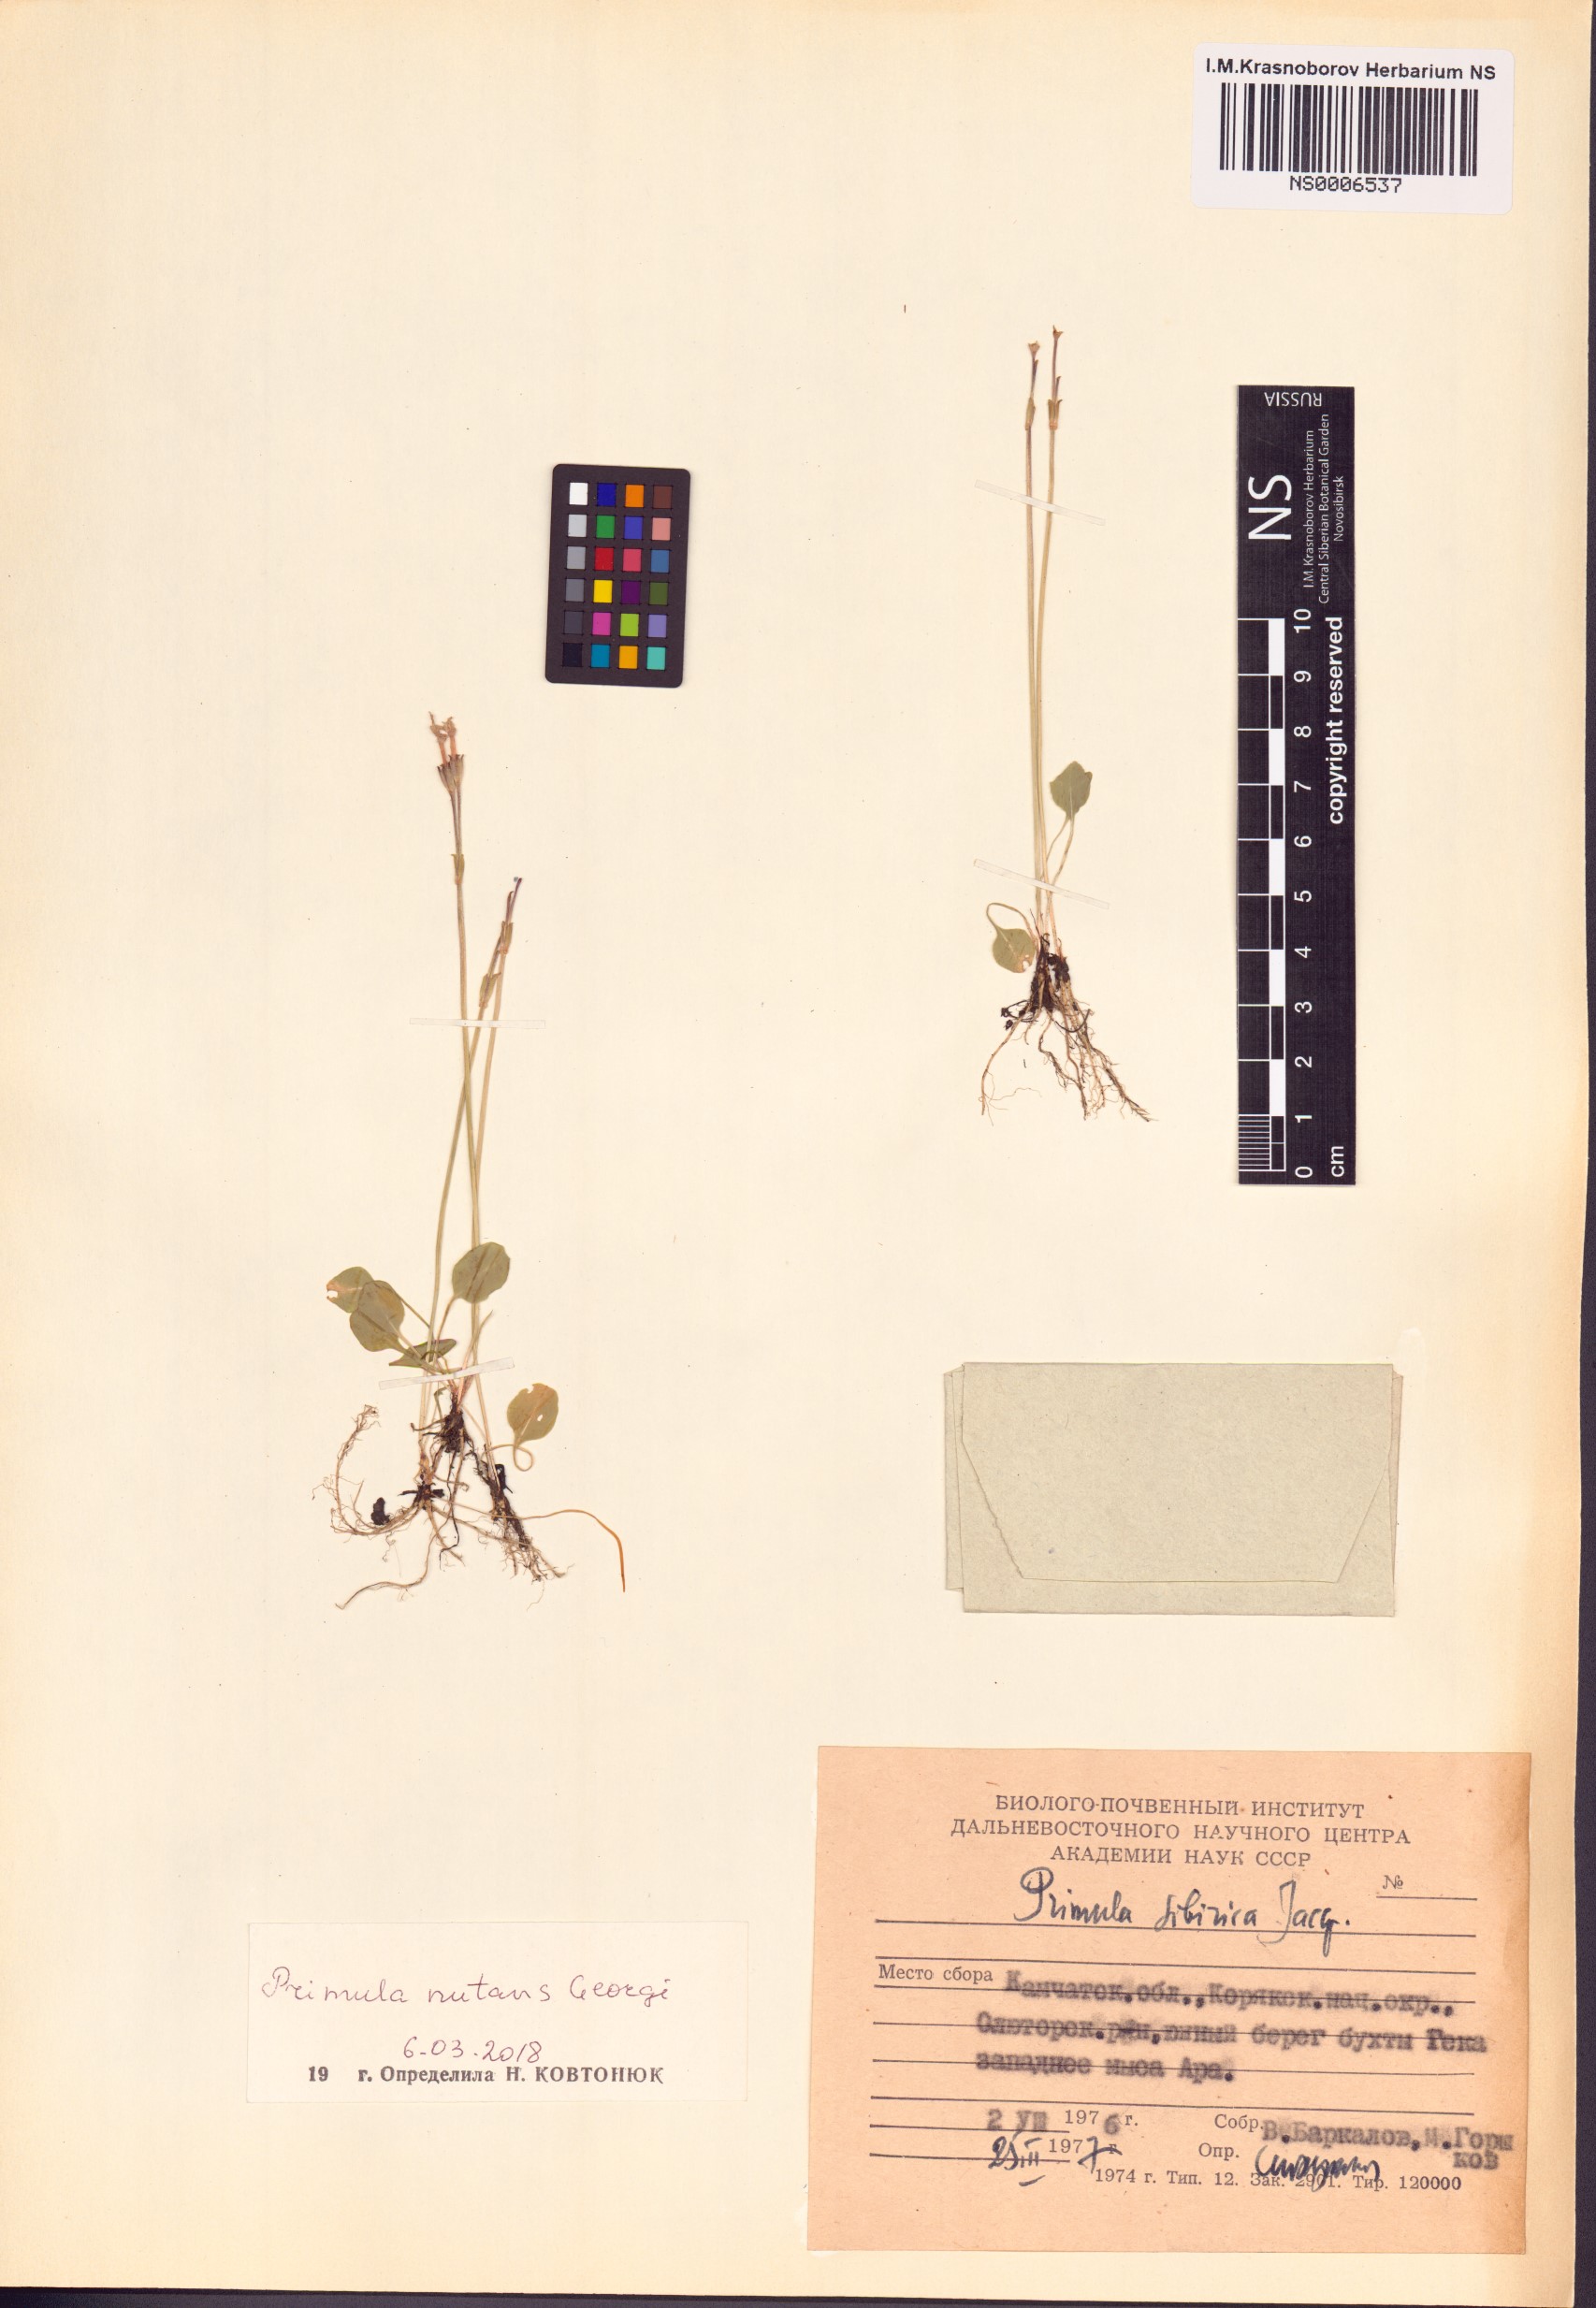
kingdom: Plantae
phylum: Tracheophyta
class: Magnoliopsida
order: Ericales
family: Primulaceae
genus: Primula
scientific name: Primula nutans
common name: Siberian primrose
